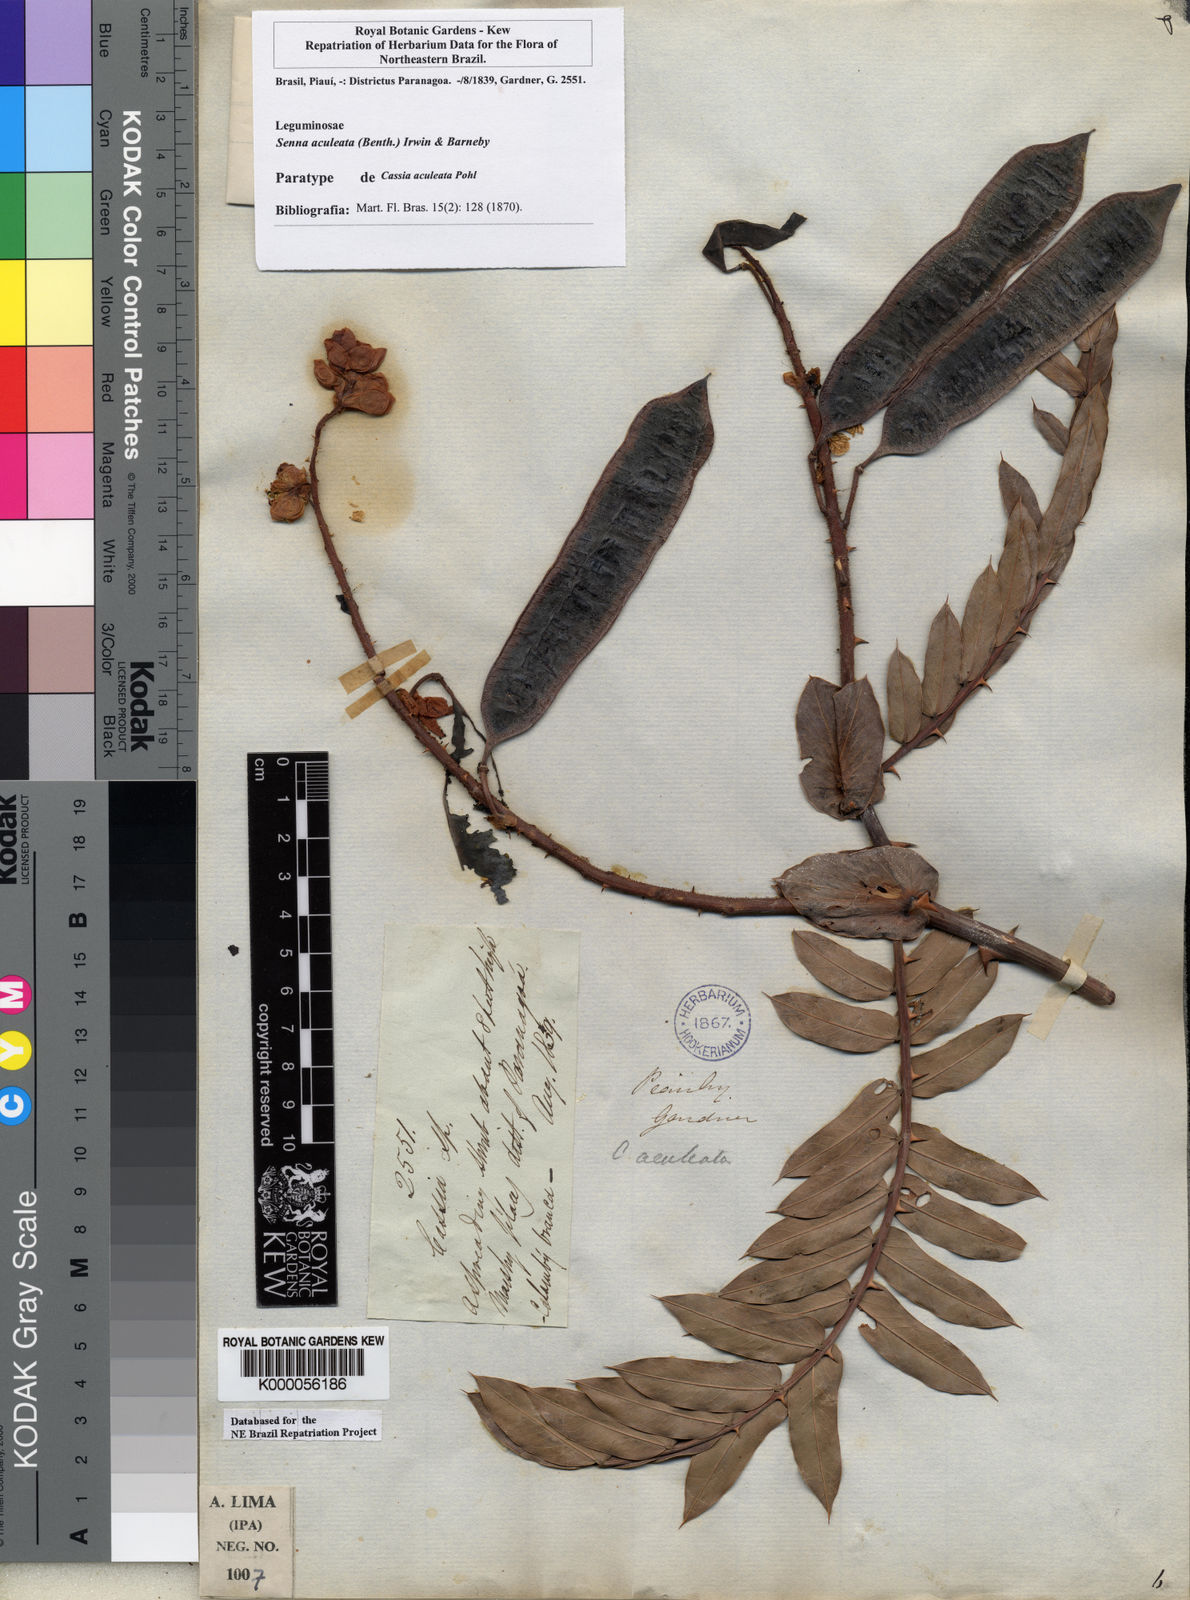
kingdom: Plantae
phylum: Tracheophyta
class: Magnoliopsida
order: Fabales
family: Fabaceae
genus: Senna
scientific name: Senna aculeata
